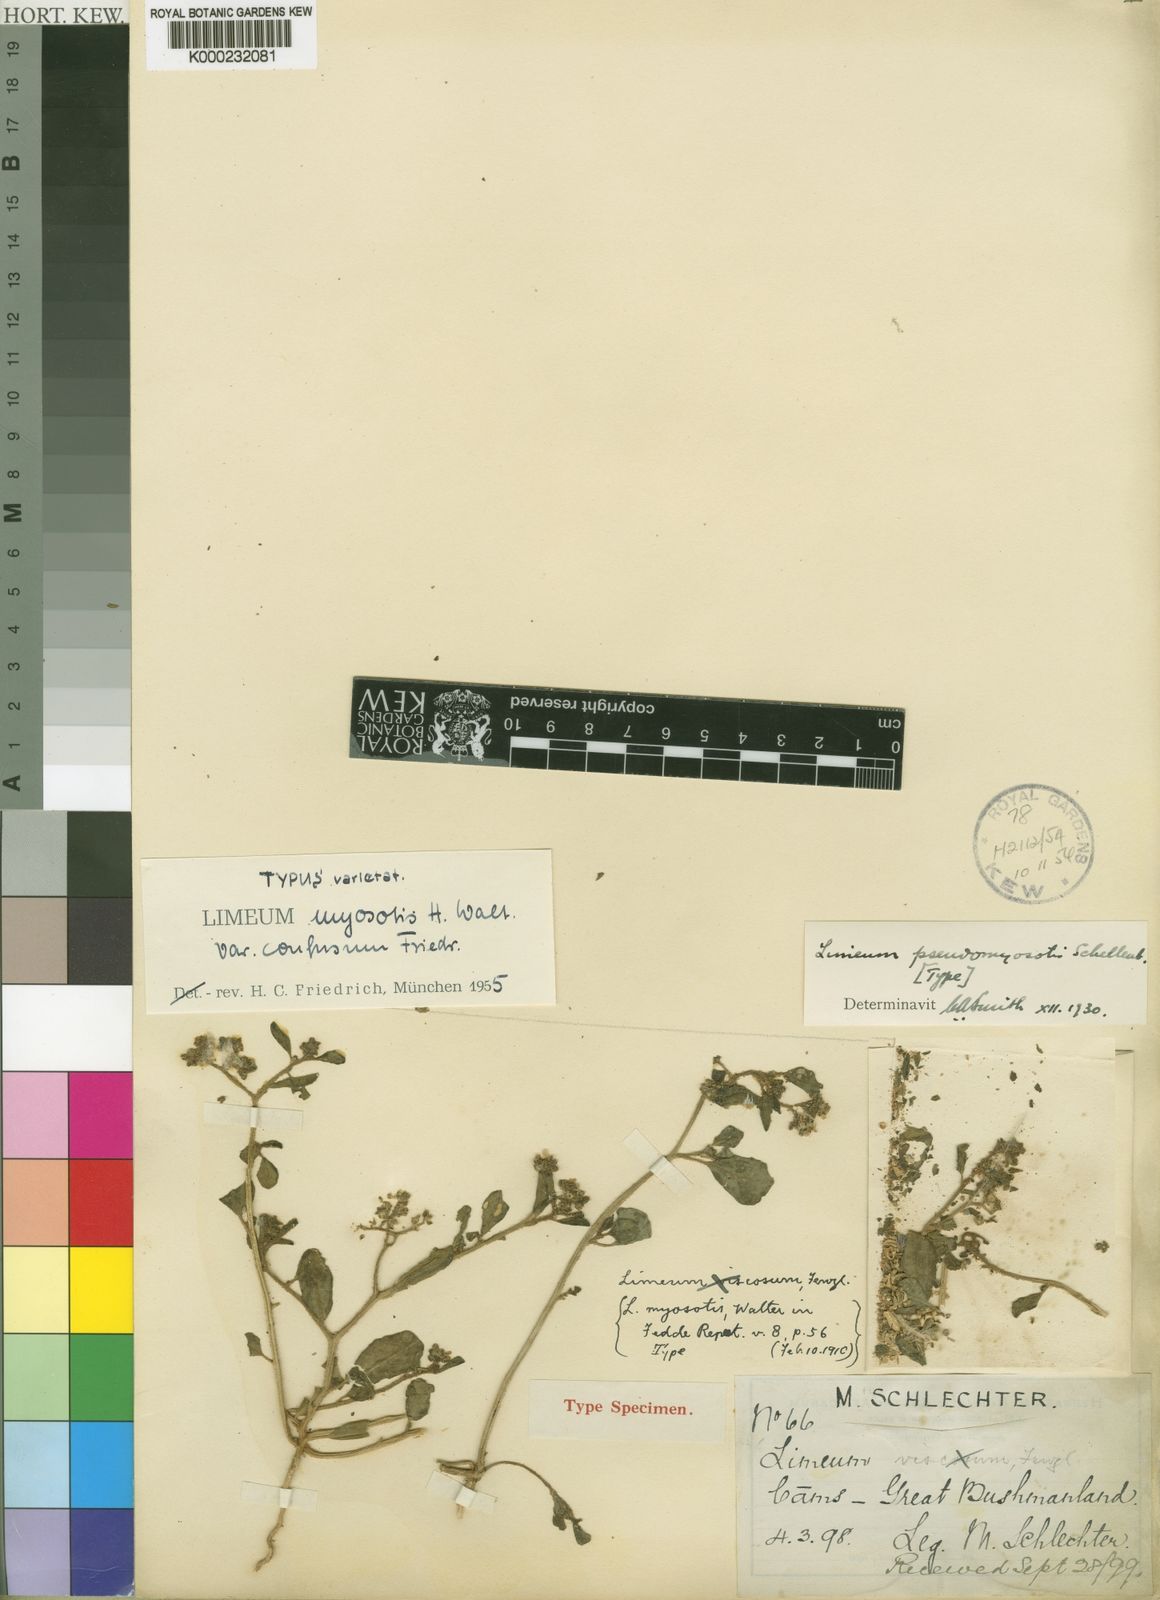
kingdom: Plantae
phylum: Tracheophyta
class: Magnoliopsida
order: Caryophyllales
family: Limeaceae
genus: Limeum
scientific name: Limeum myosotis
